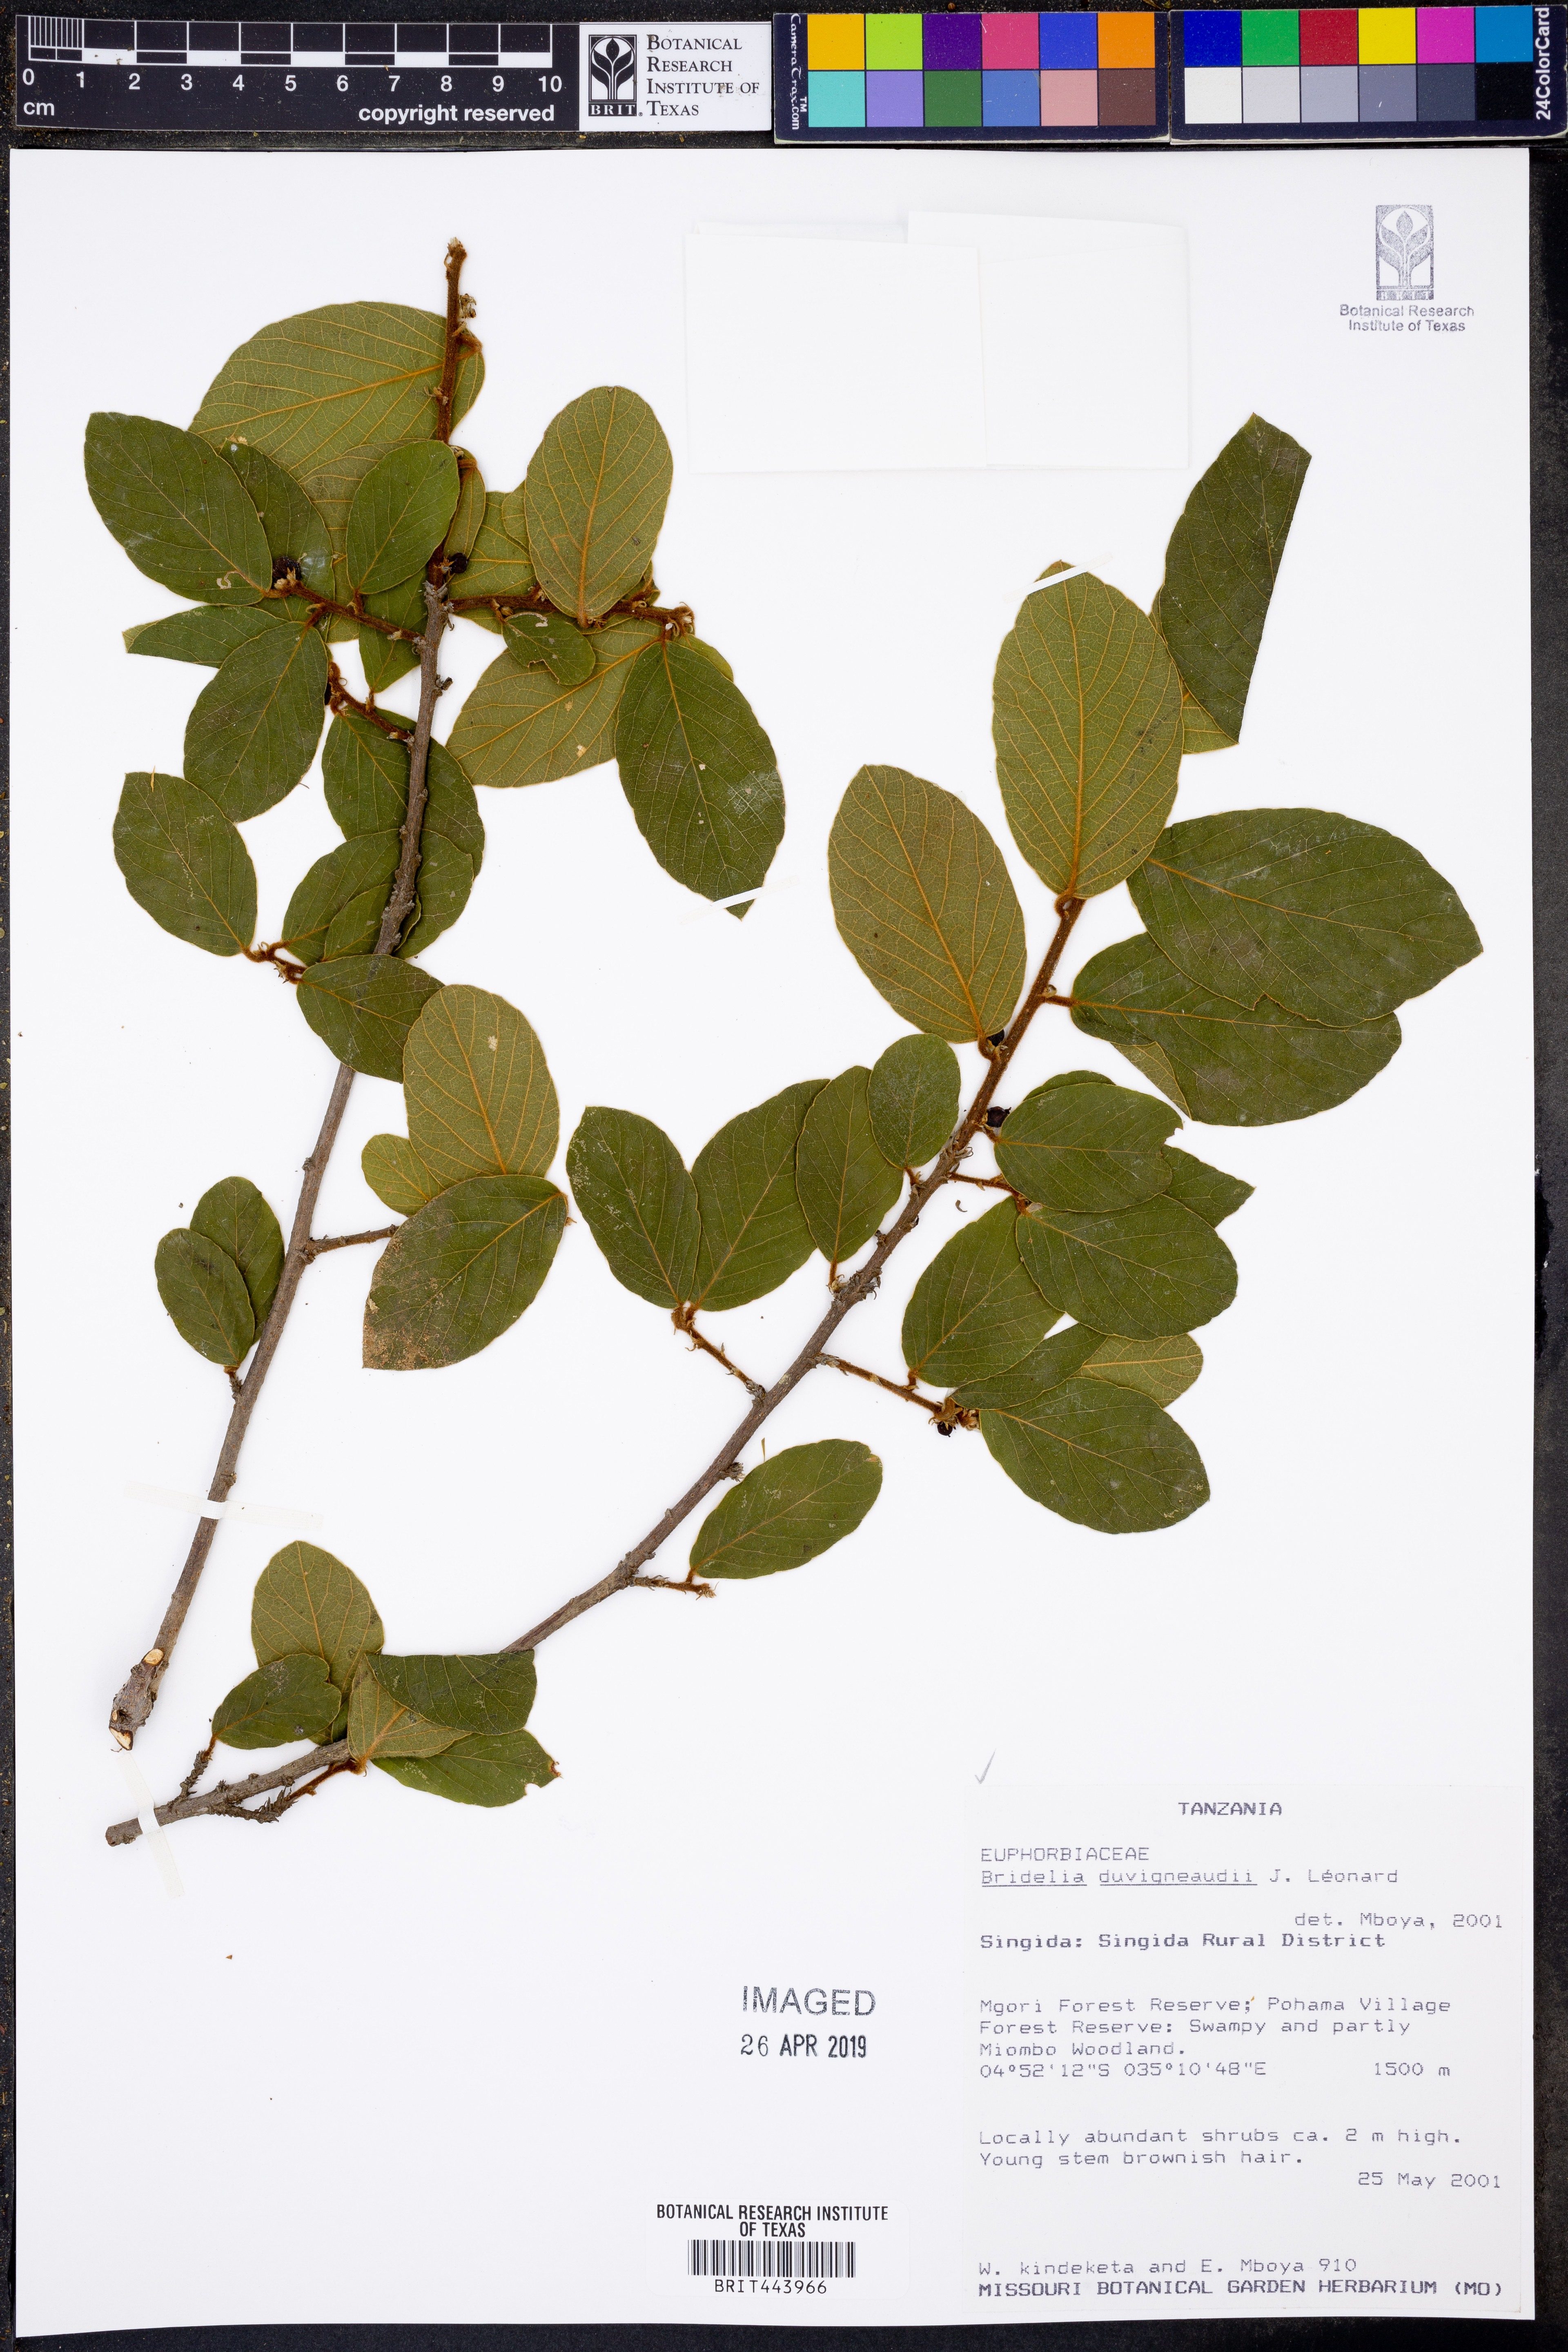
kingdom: Plantae
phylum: Tracheophyta
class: Magnoliopsida
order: Malpighiales
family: Phyllanthaceae
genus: Bridelia
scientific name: Bridelia duvigneaudii
